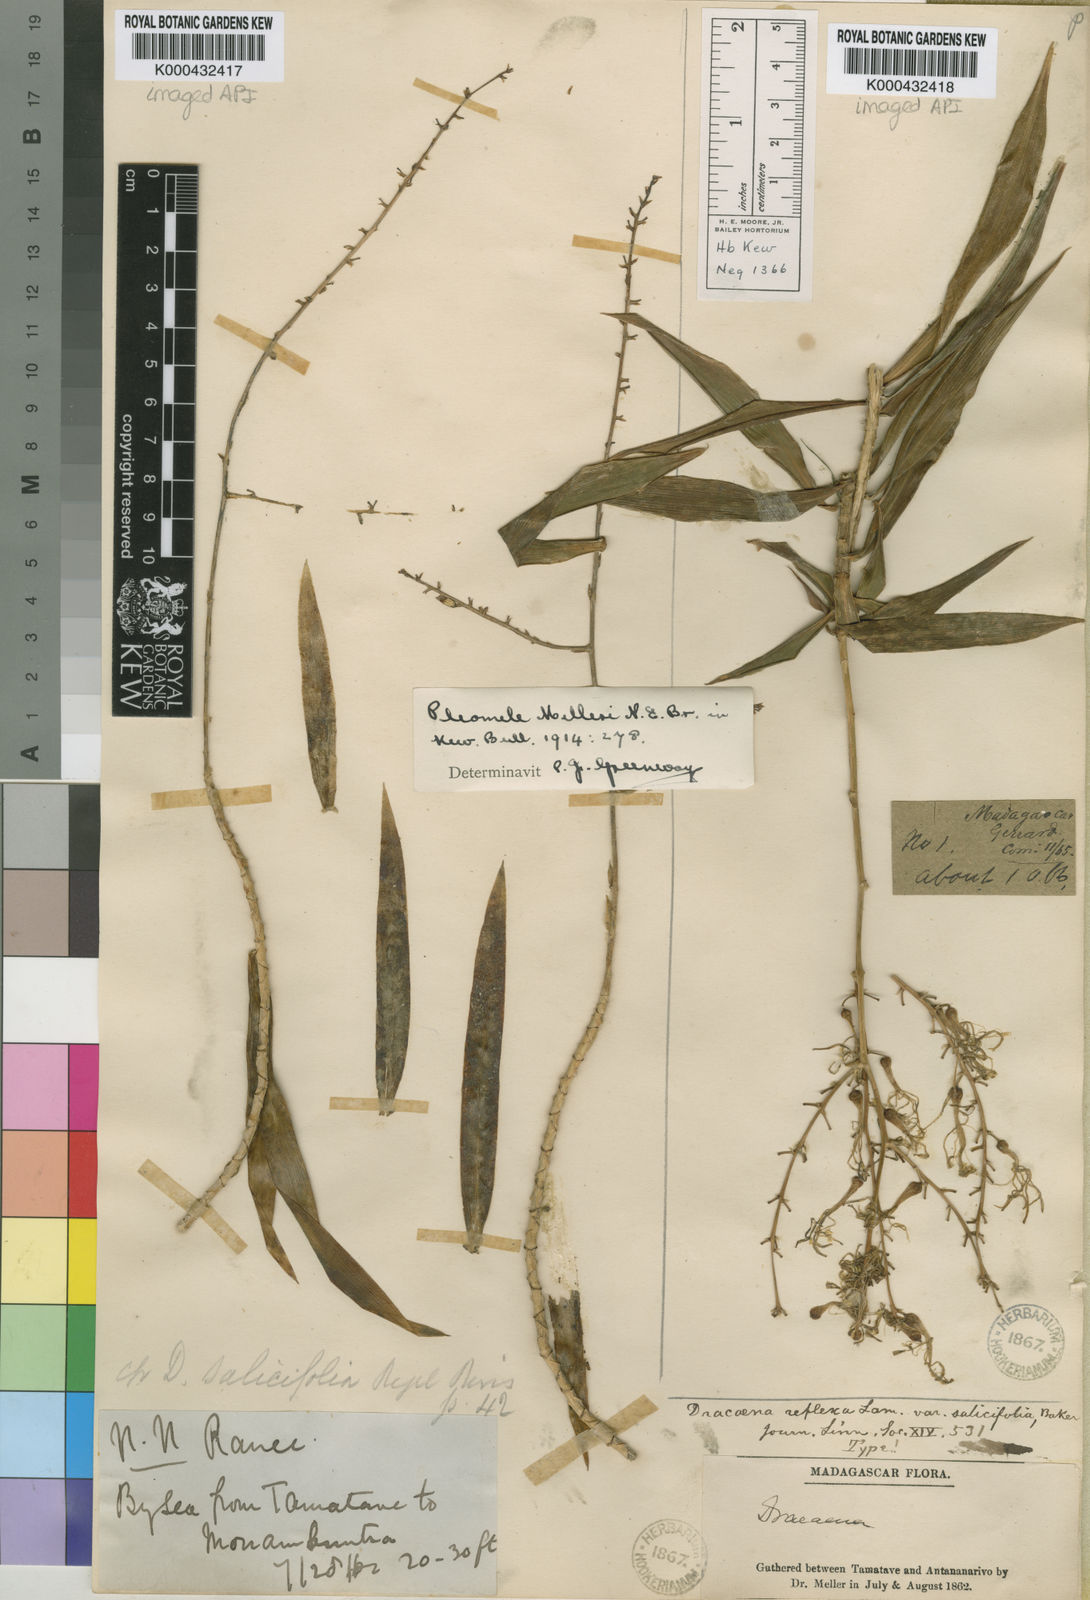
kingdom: Plantae
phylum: Tracheophyta
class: Liliopsida
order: Asparagales
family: Asparagaceae
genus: Dracaena
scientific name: Dracaena reflexa
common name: Song-of-india
